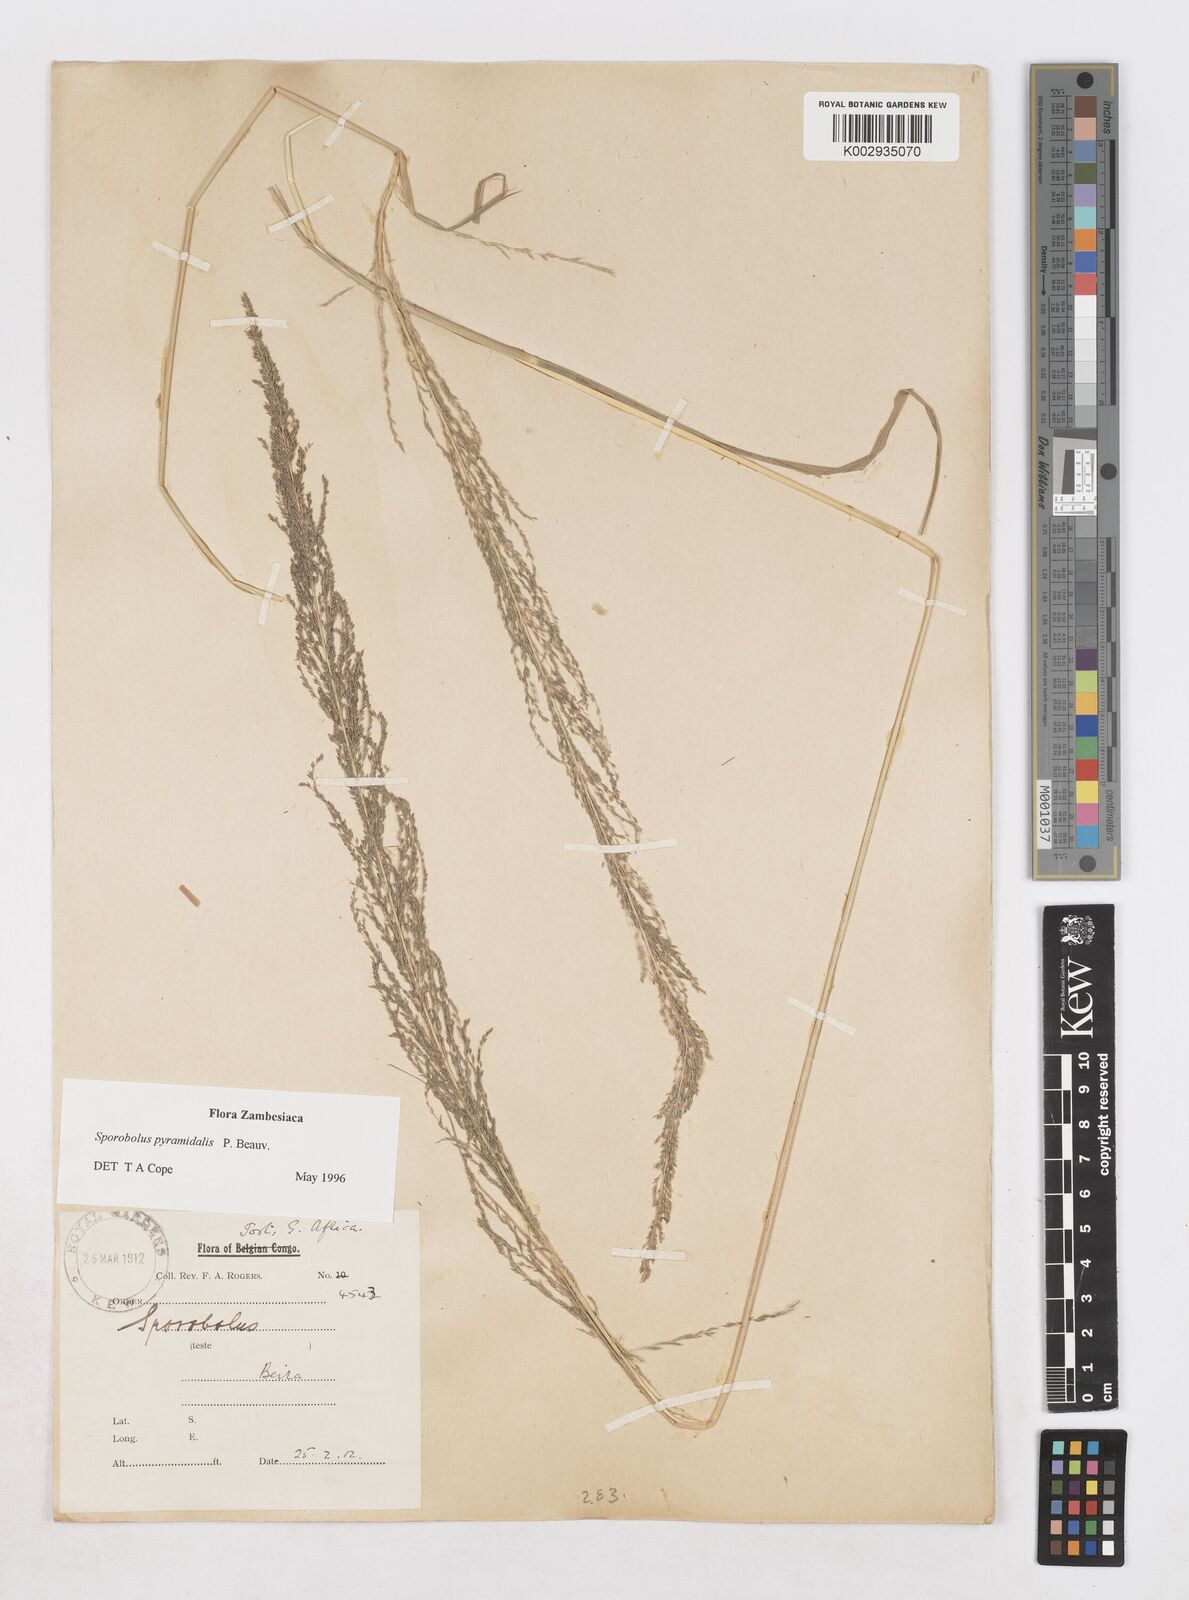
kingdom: Plantae
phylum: Tracheophyta
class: Liliopsida
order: Poales
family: Poaceae
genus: Sporobolus
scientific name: Sporobolus pyramidalis
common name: West indian dropseed
